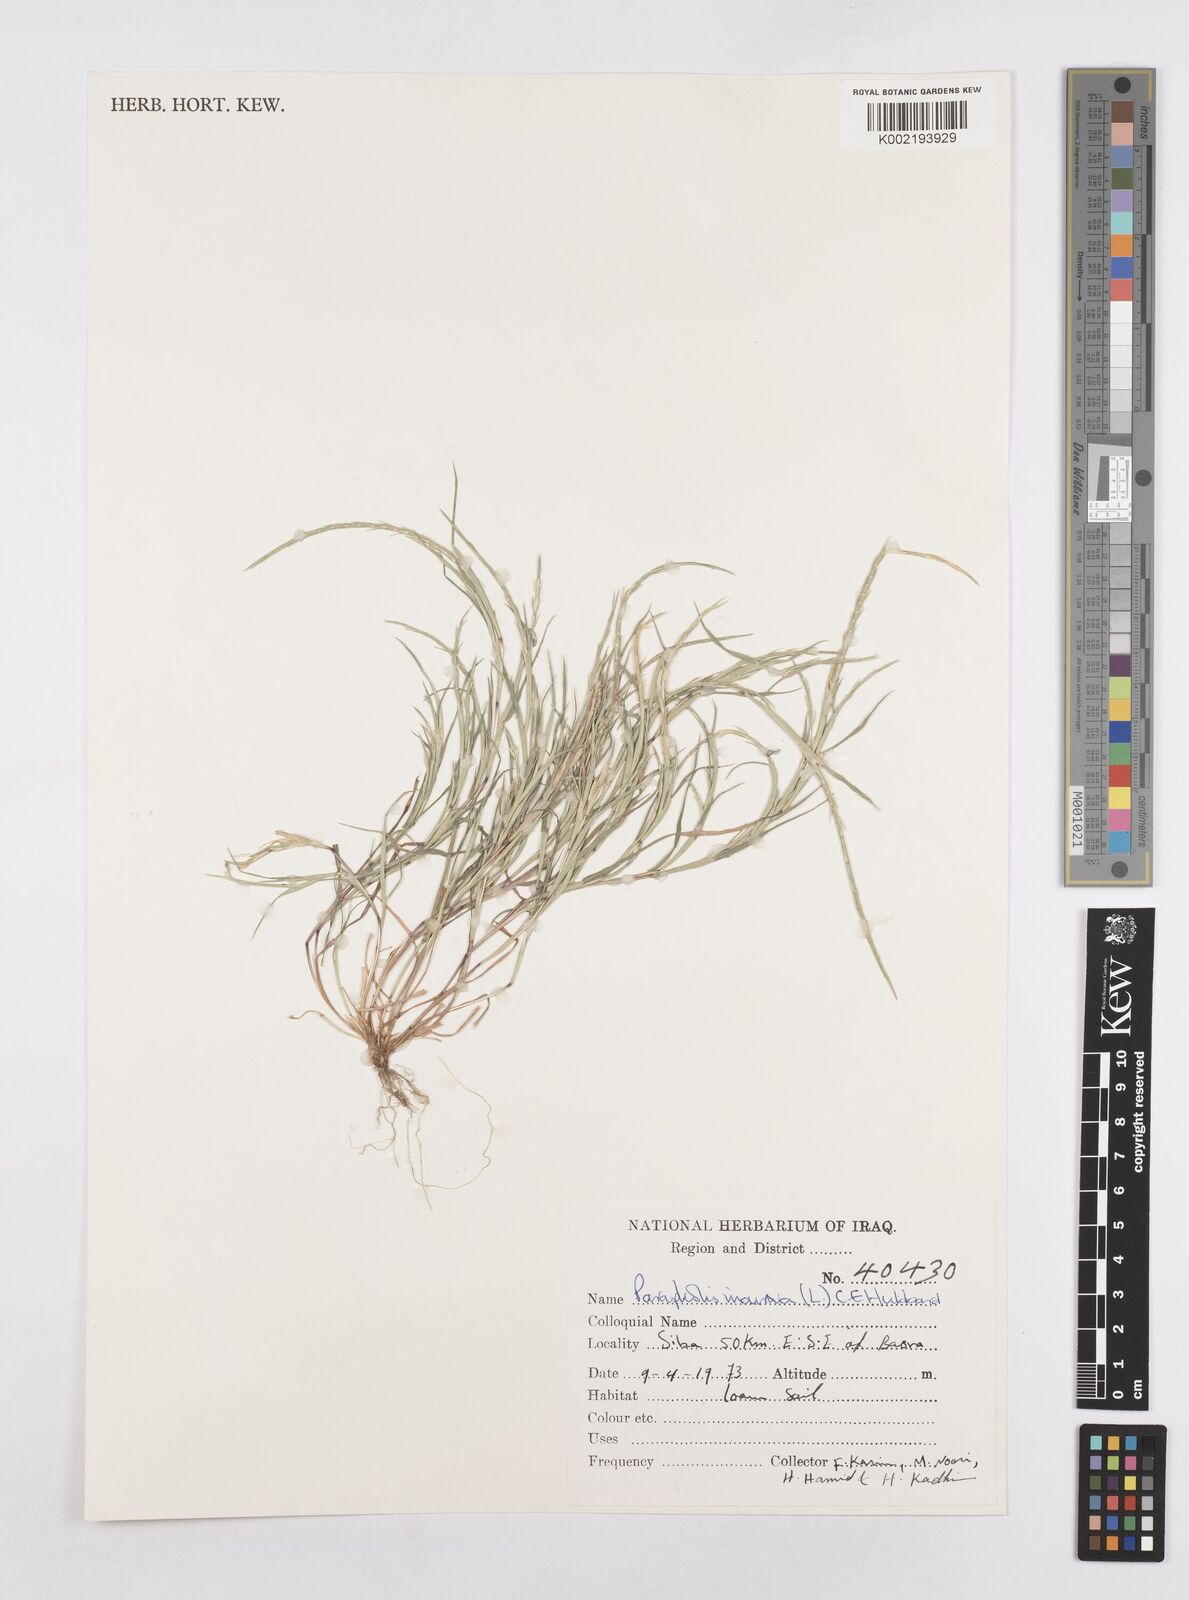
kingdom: Plantae
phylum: Tracheophyta
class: Liliopsida
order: Poales
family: Poaceae
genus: Parapholis
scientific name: Parapholis incurva
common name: Curved sicklegrass
